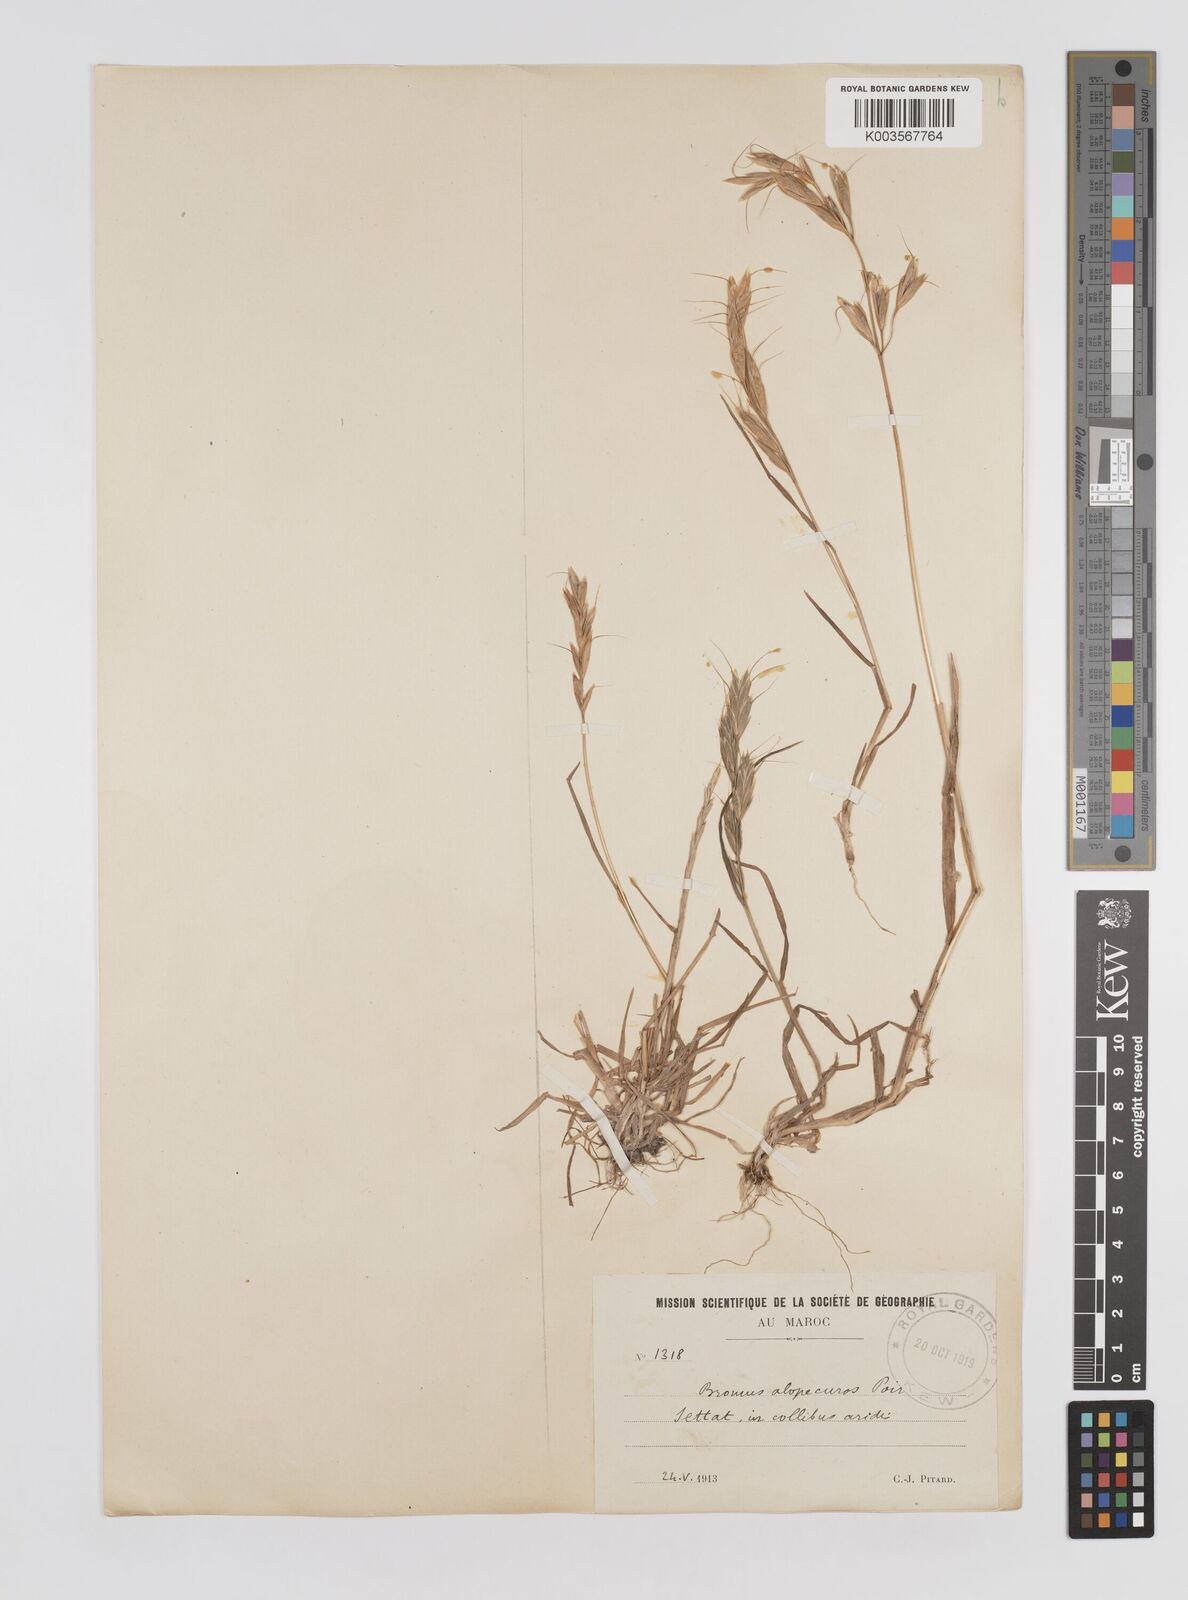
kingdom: Plantae
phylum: Tracheophyta
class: Liliopsida
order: Poales
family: Poaceae
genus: Bromus
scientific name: Bromus alopecuros
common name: Weedy brome
